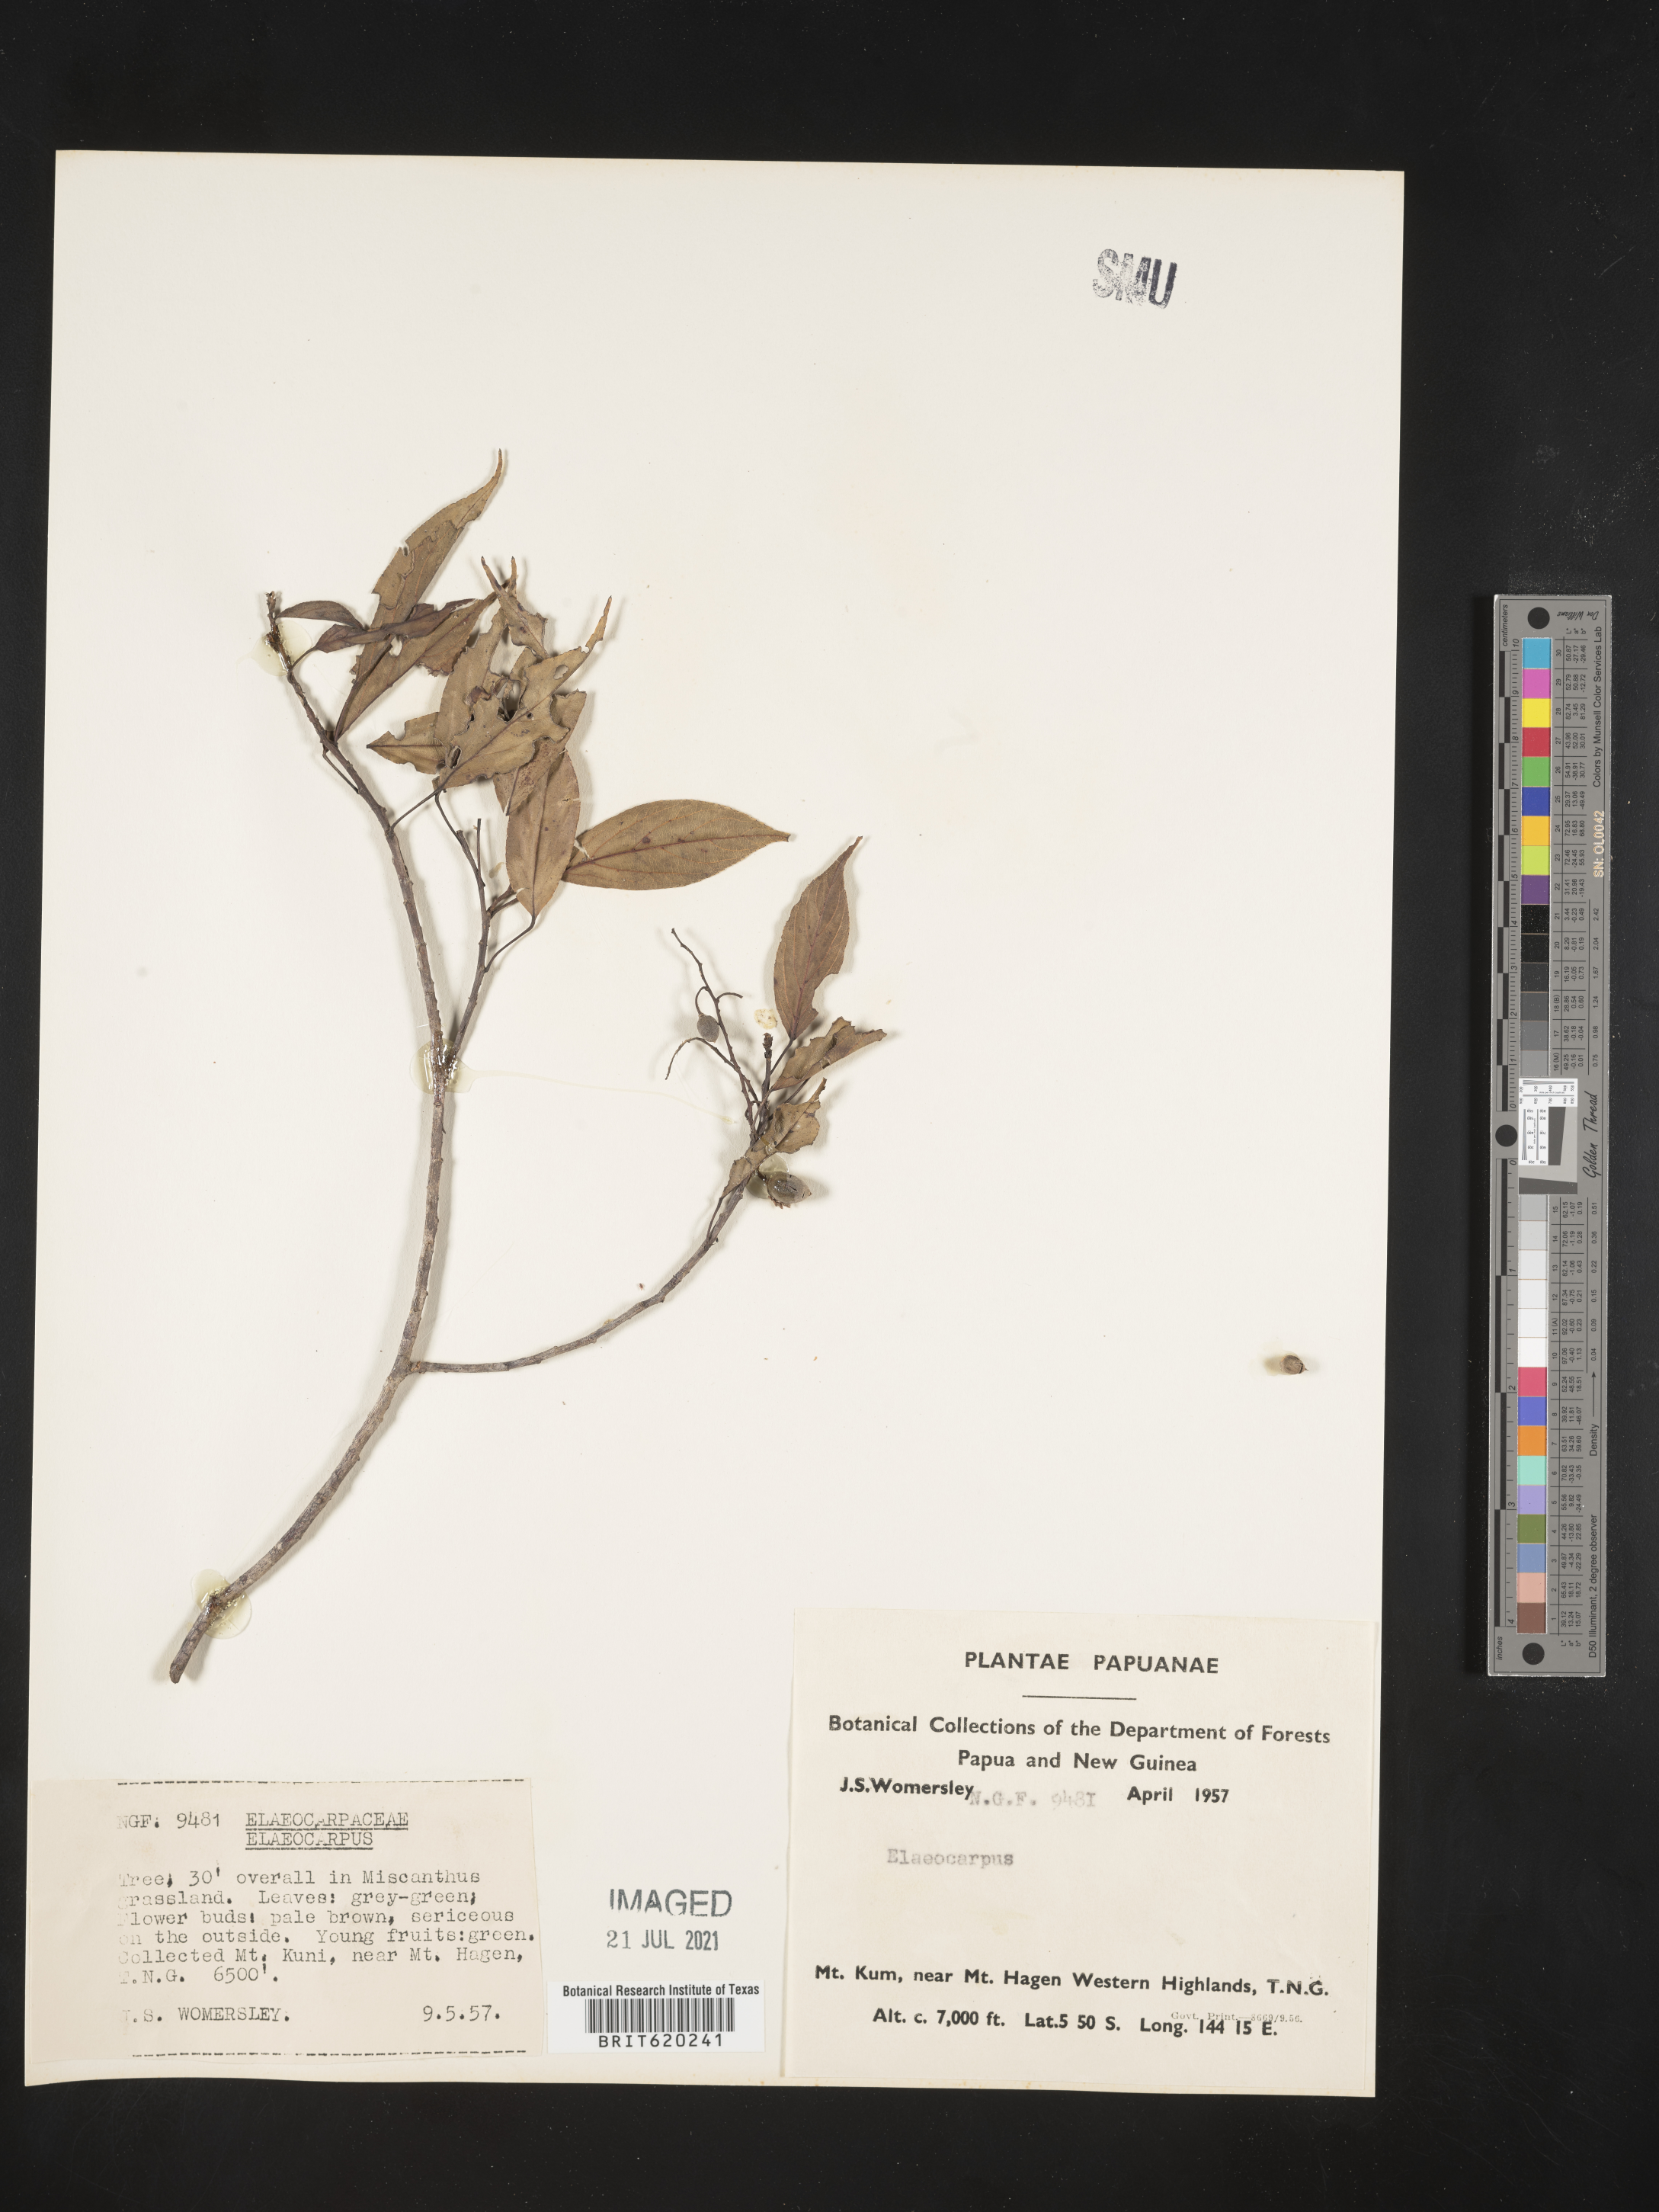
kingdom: Plantae
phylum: Tracheophyta
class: Magnoliopsida
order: Oxalidales
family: Elaeocarpaceae
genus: Elaeocarpus
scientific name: Elaeocarpus
